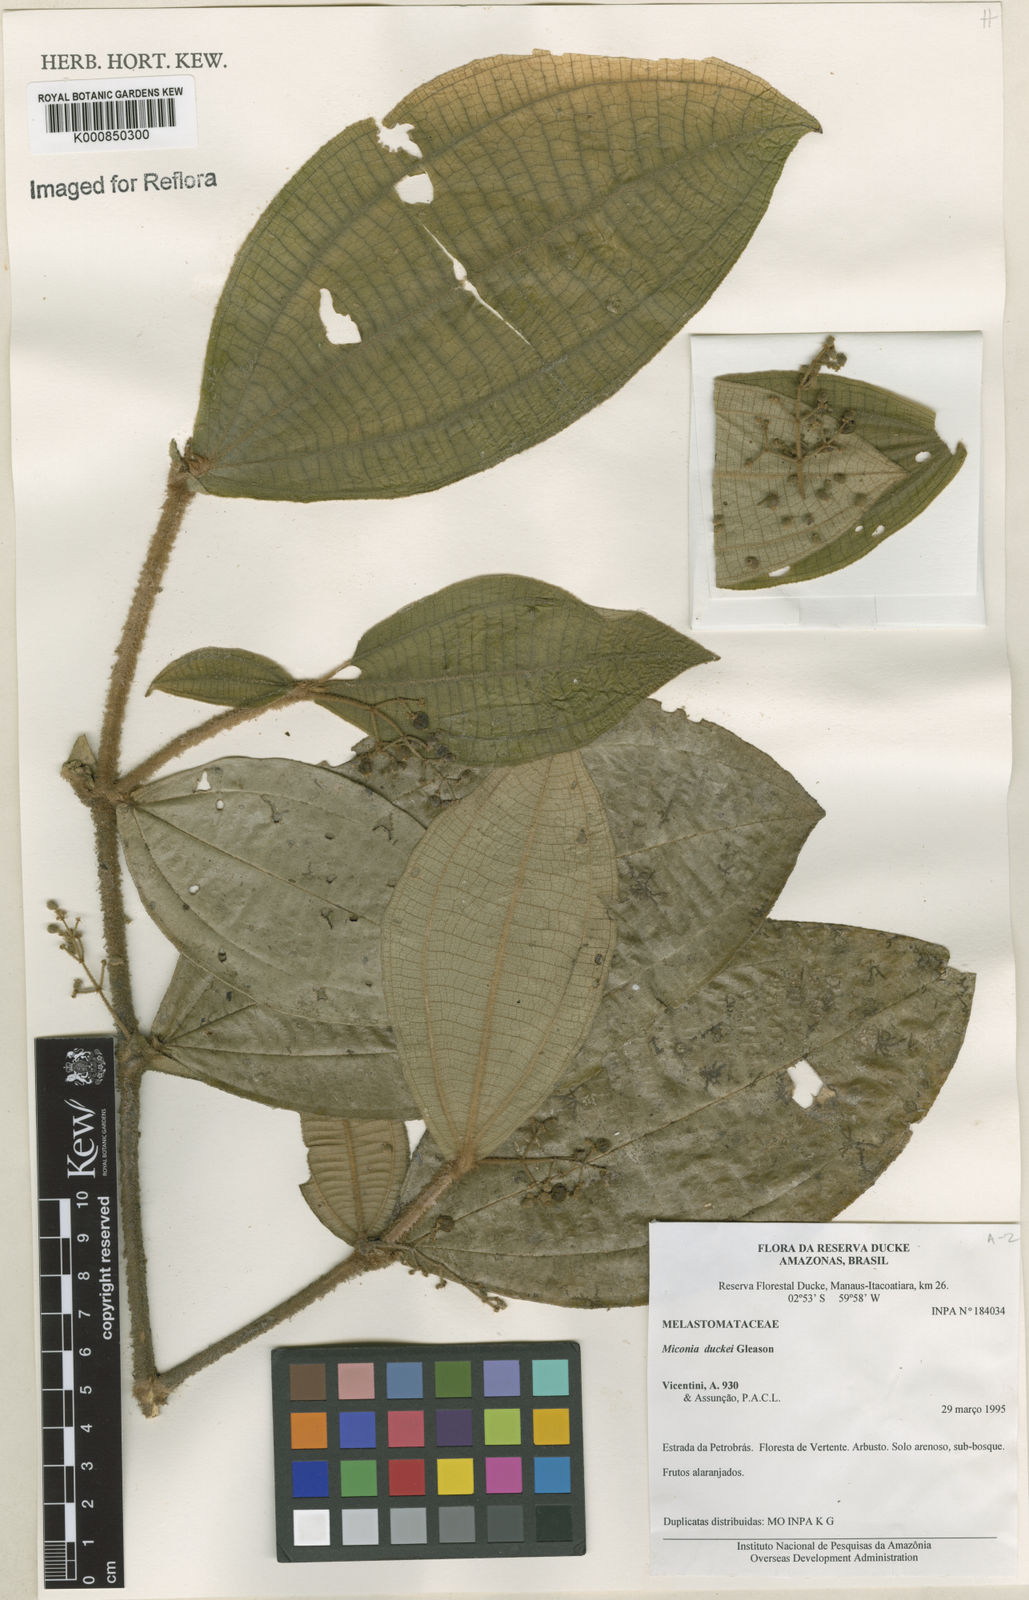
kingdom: Plantae
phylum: Tracheophyta
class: Magnoliopsida
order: Myrtales
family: Melastomataceae
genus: Miconia
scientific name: Miconia duckei
